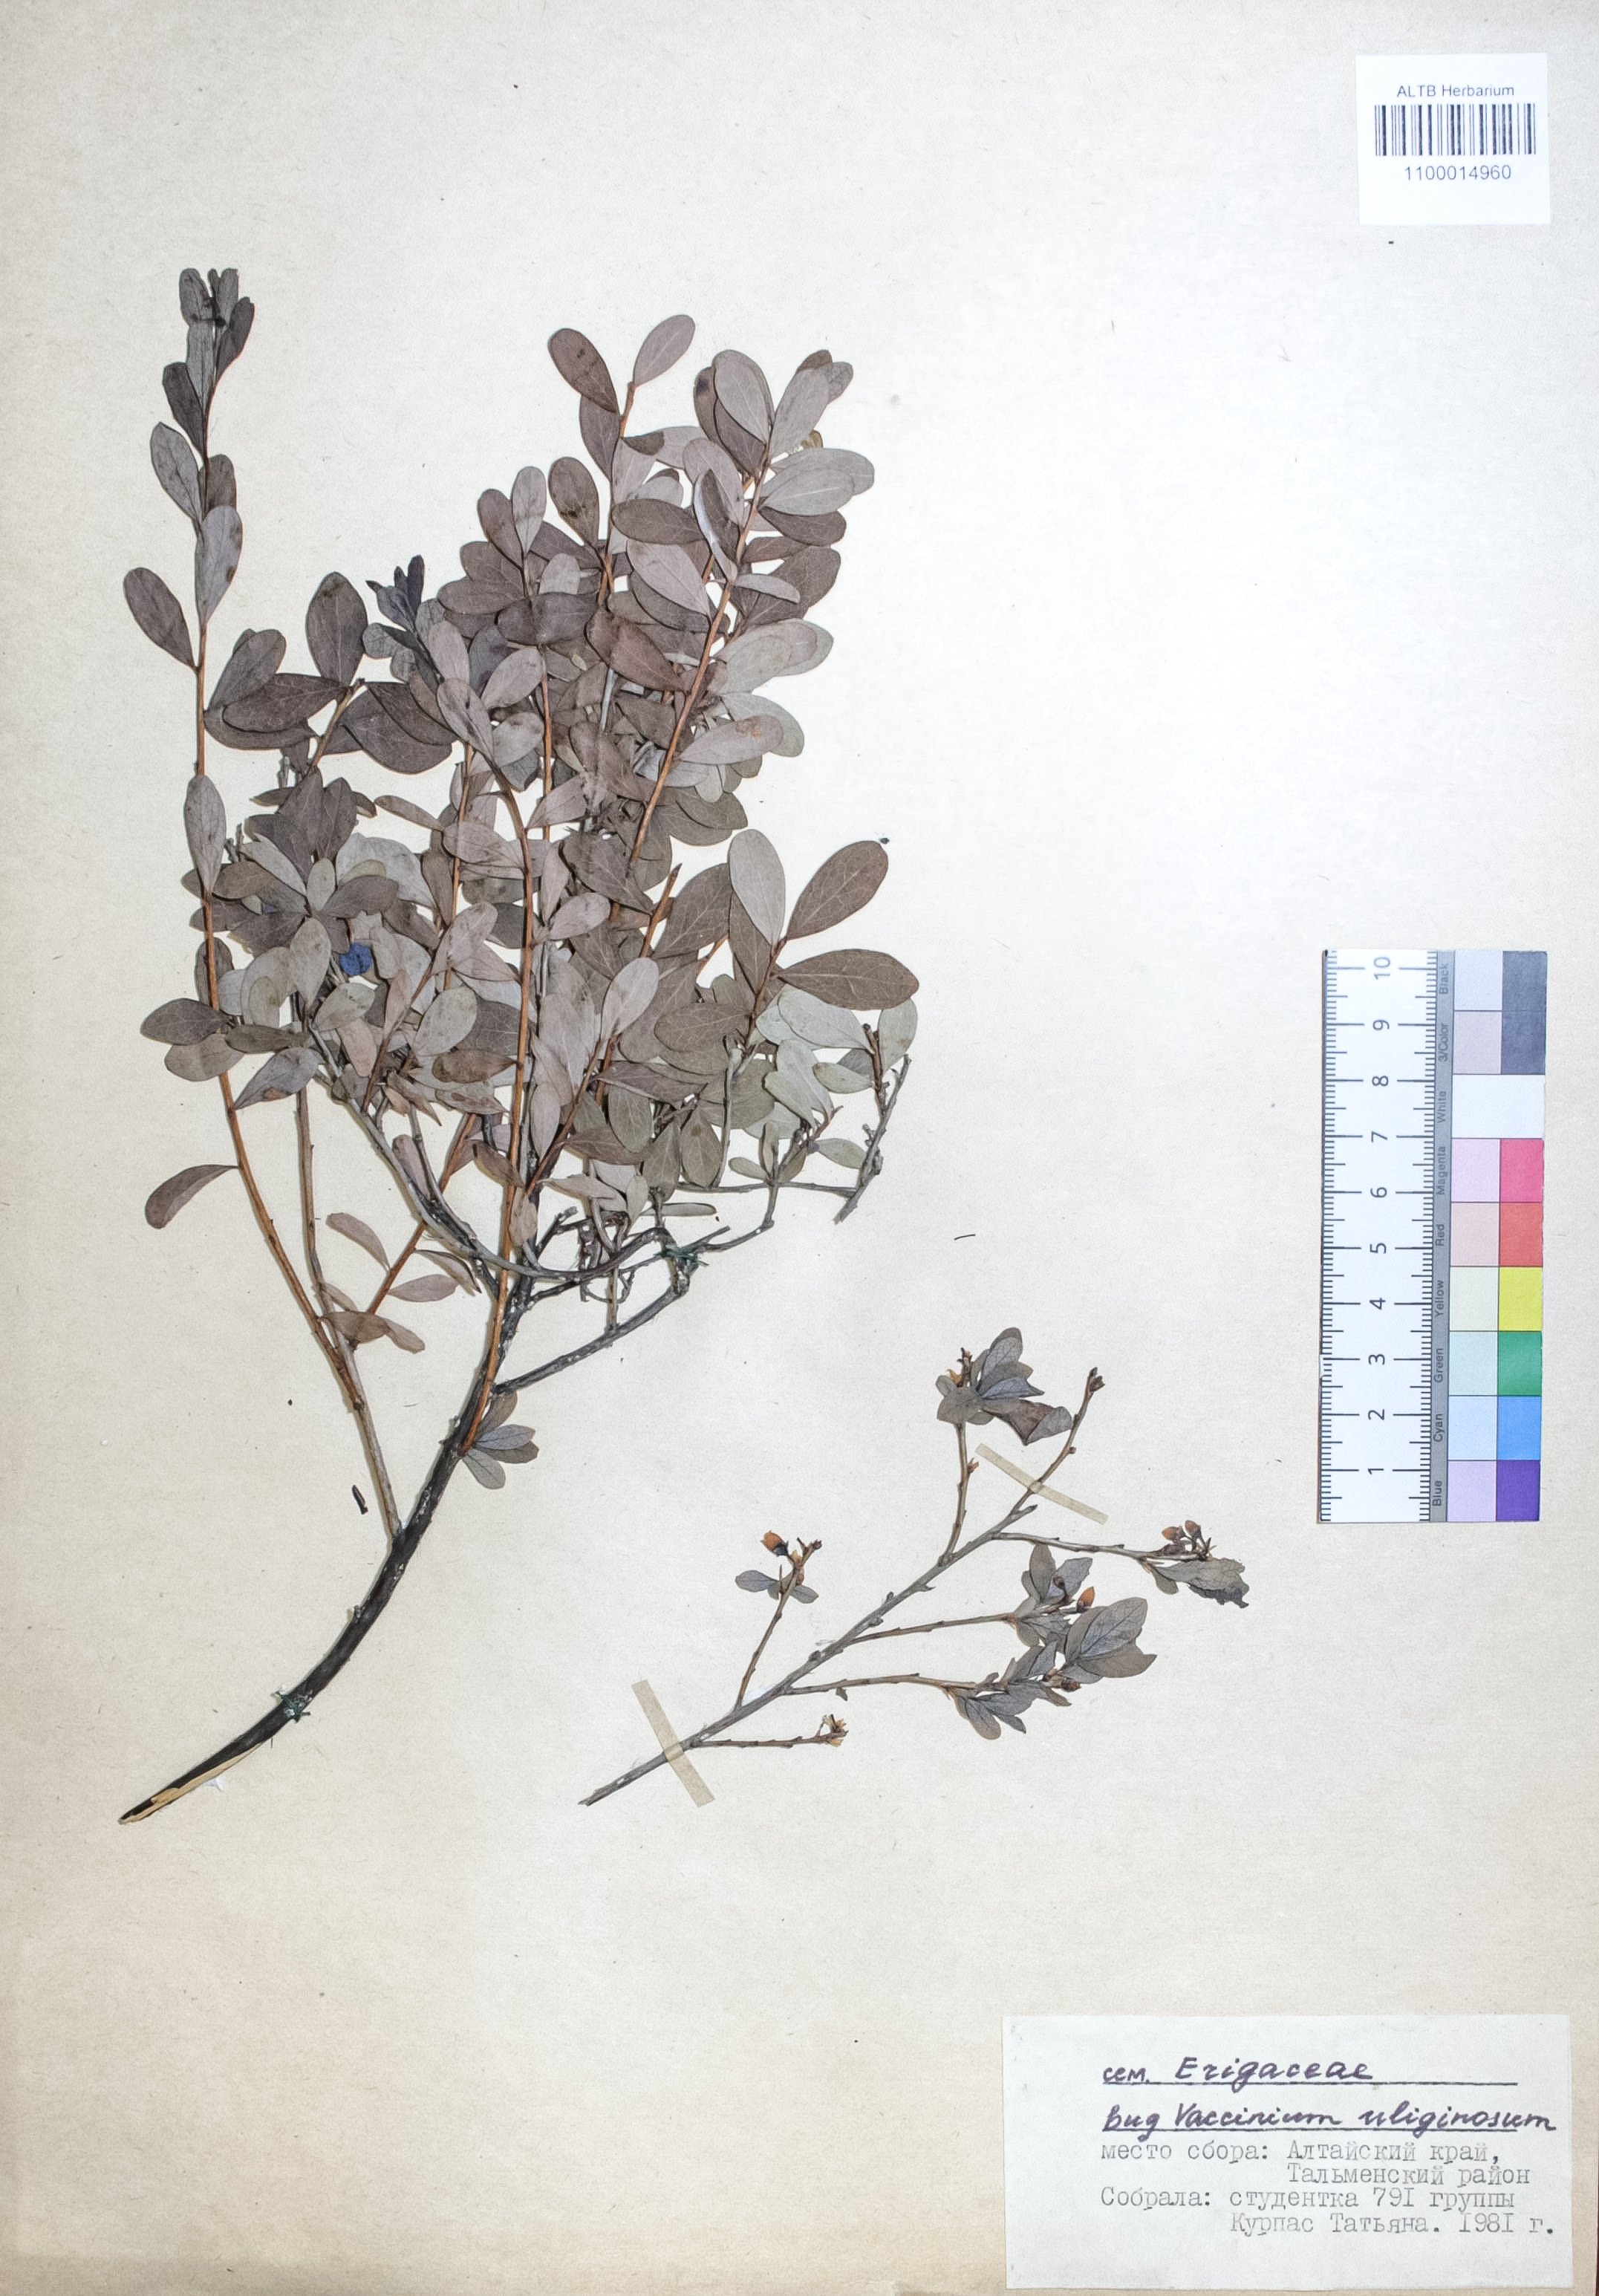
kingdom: Plantae
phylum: Tracheophyta
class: Magnoliopsida
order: Ericales
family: Ericaceae
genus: Vaccinium
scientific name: Vaccinium uliginosum
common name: Bog bilberry
